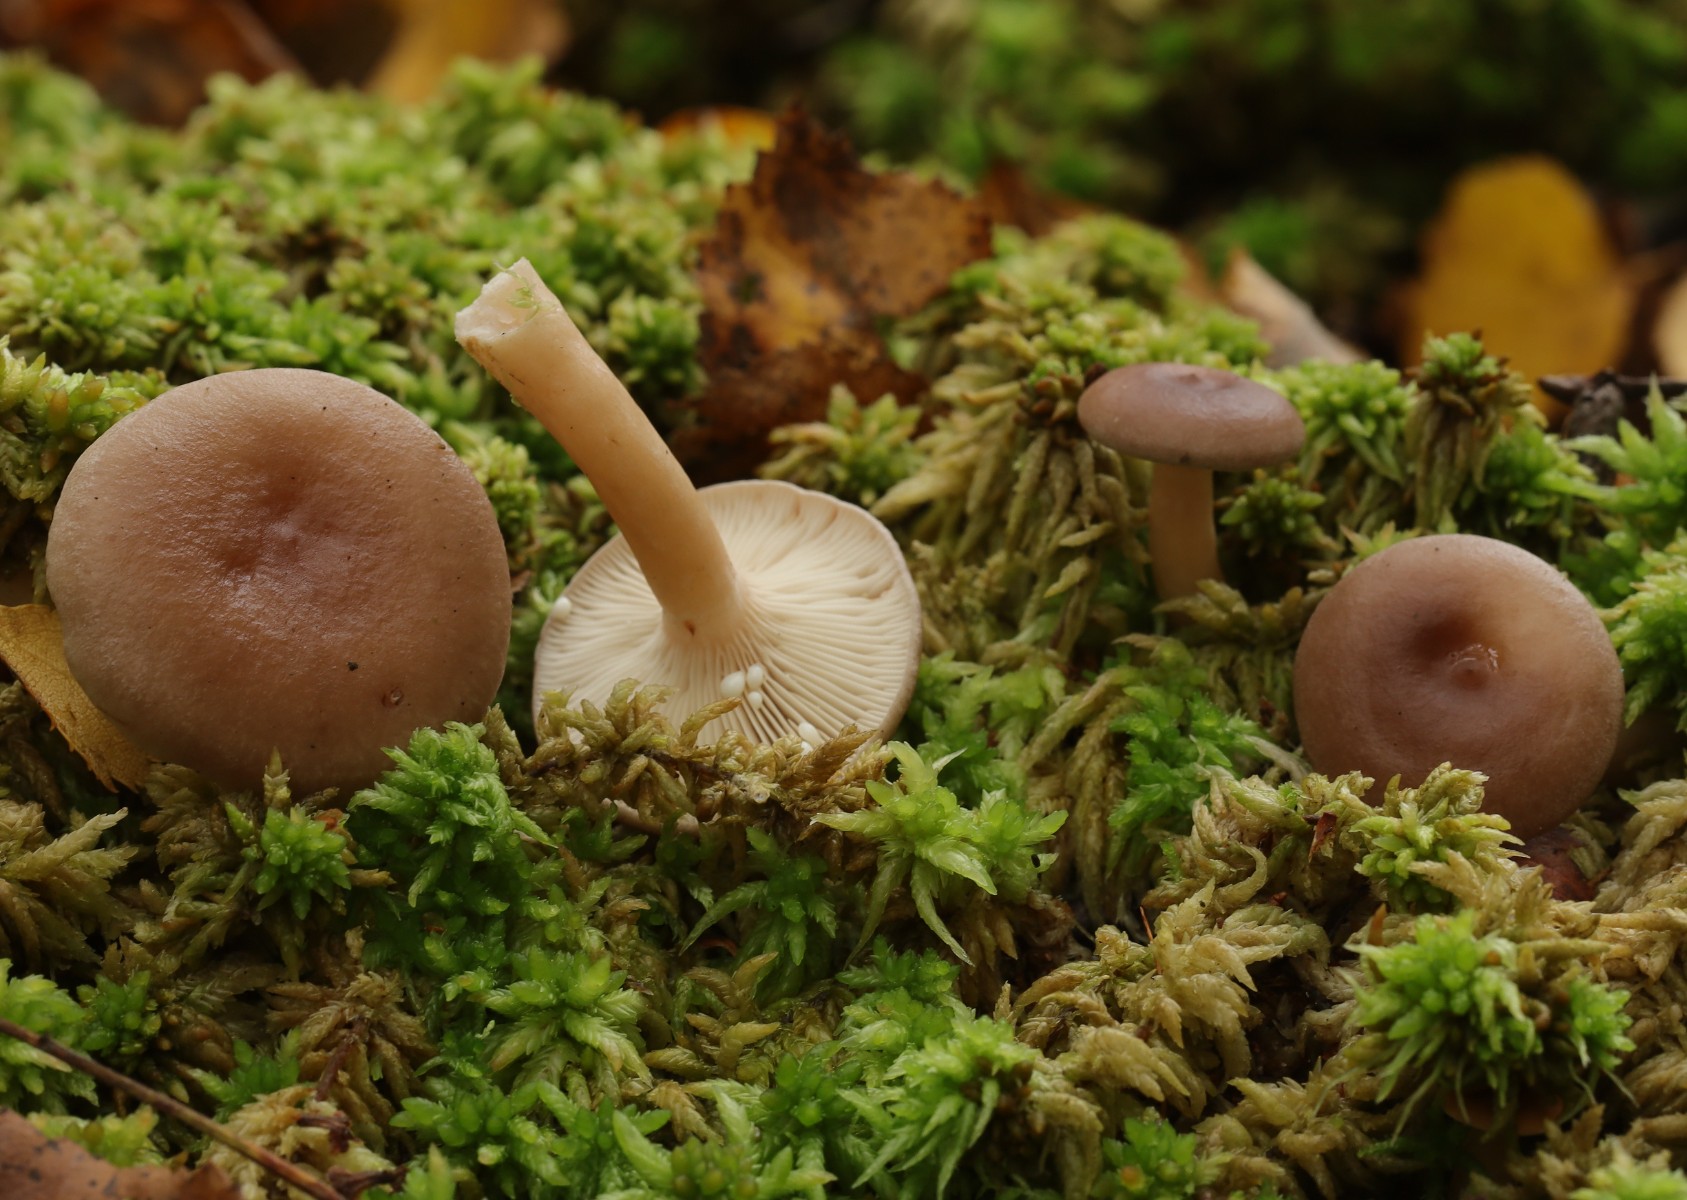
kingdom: Fungi
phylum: Basidiomycota
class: Agaricomycetes
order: Russulales
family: Russulaceae
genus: Lactarius
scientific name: Lactarius tabidus
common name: rynket mælkehat
